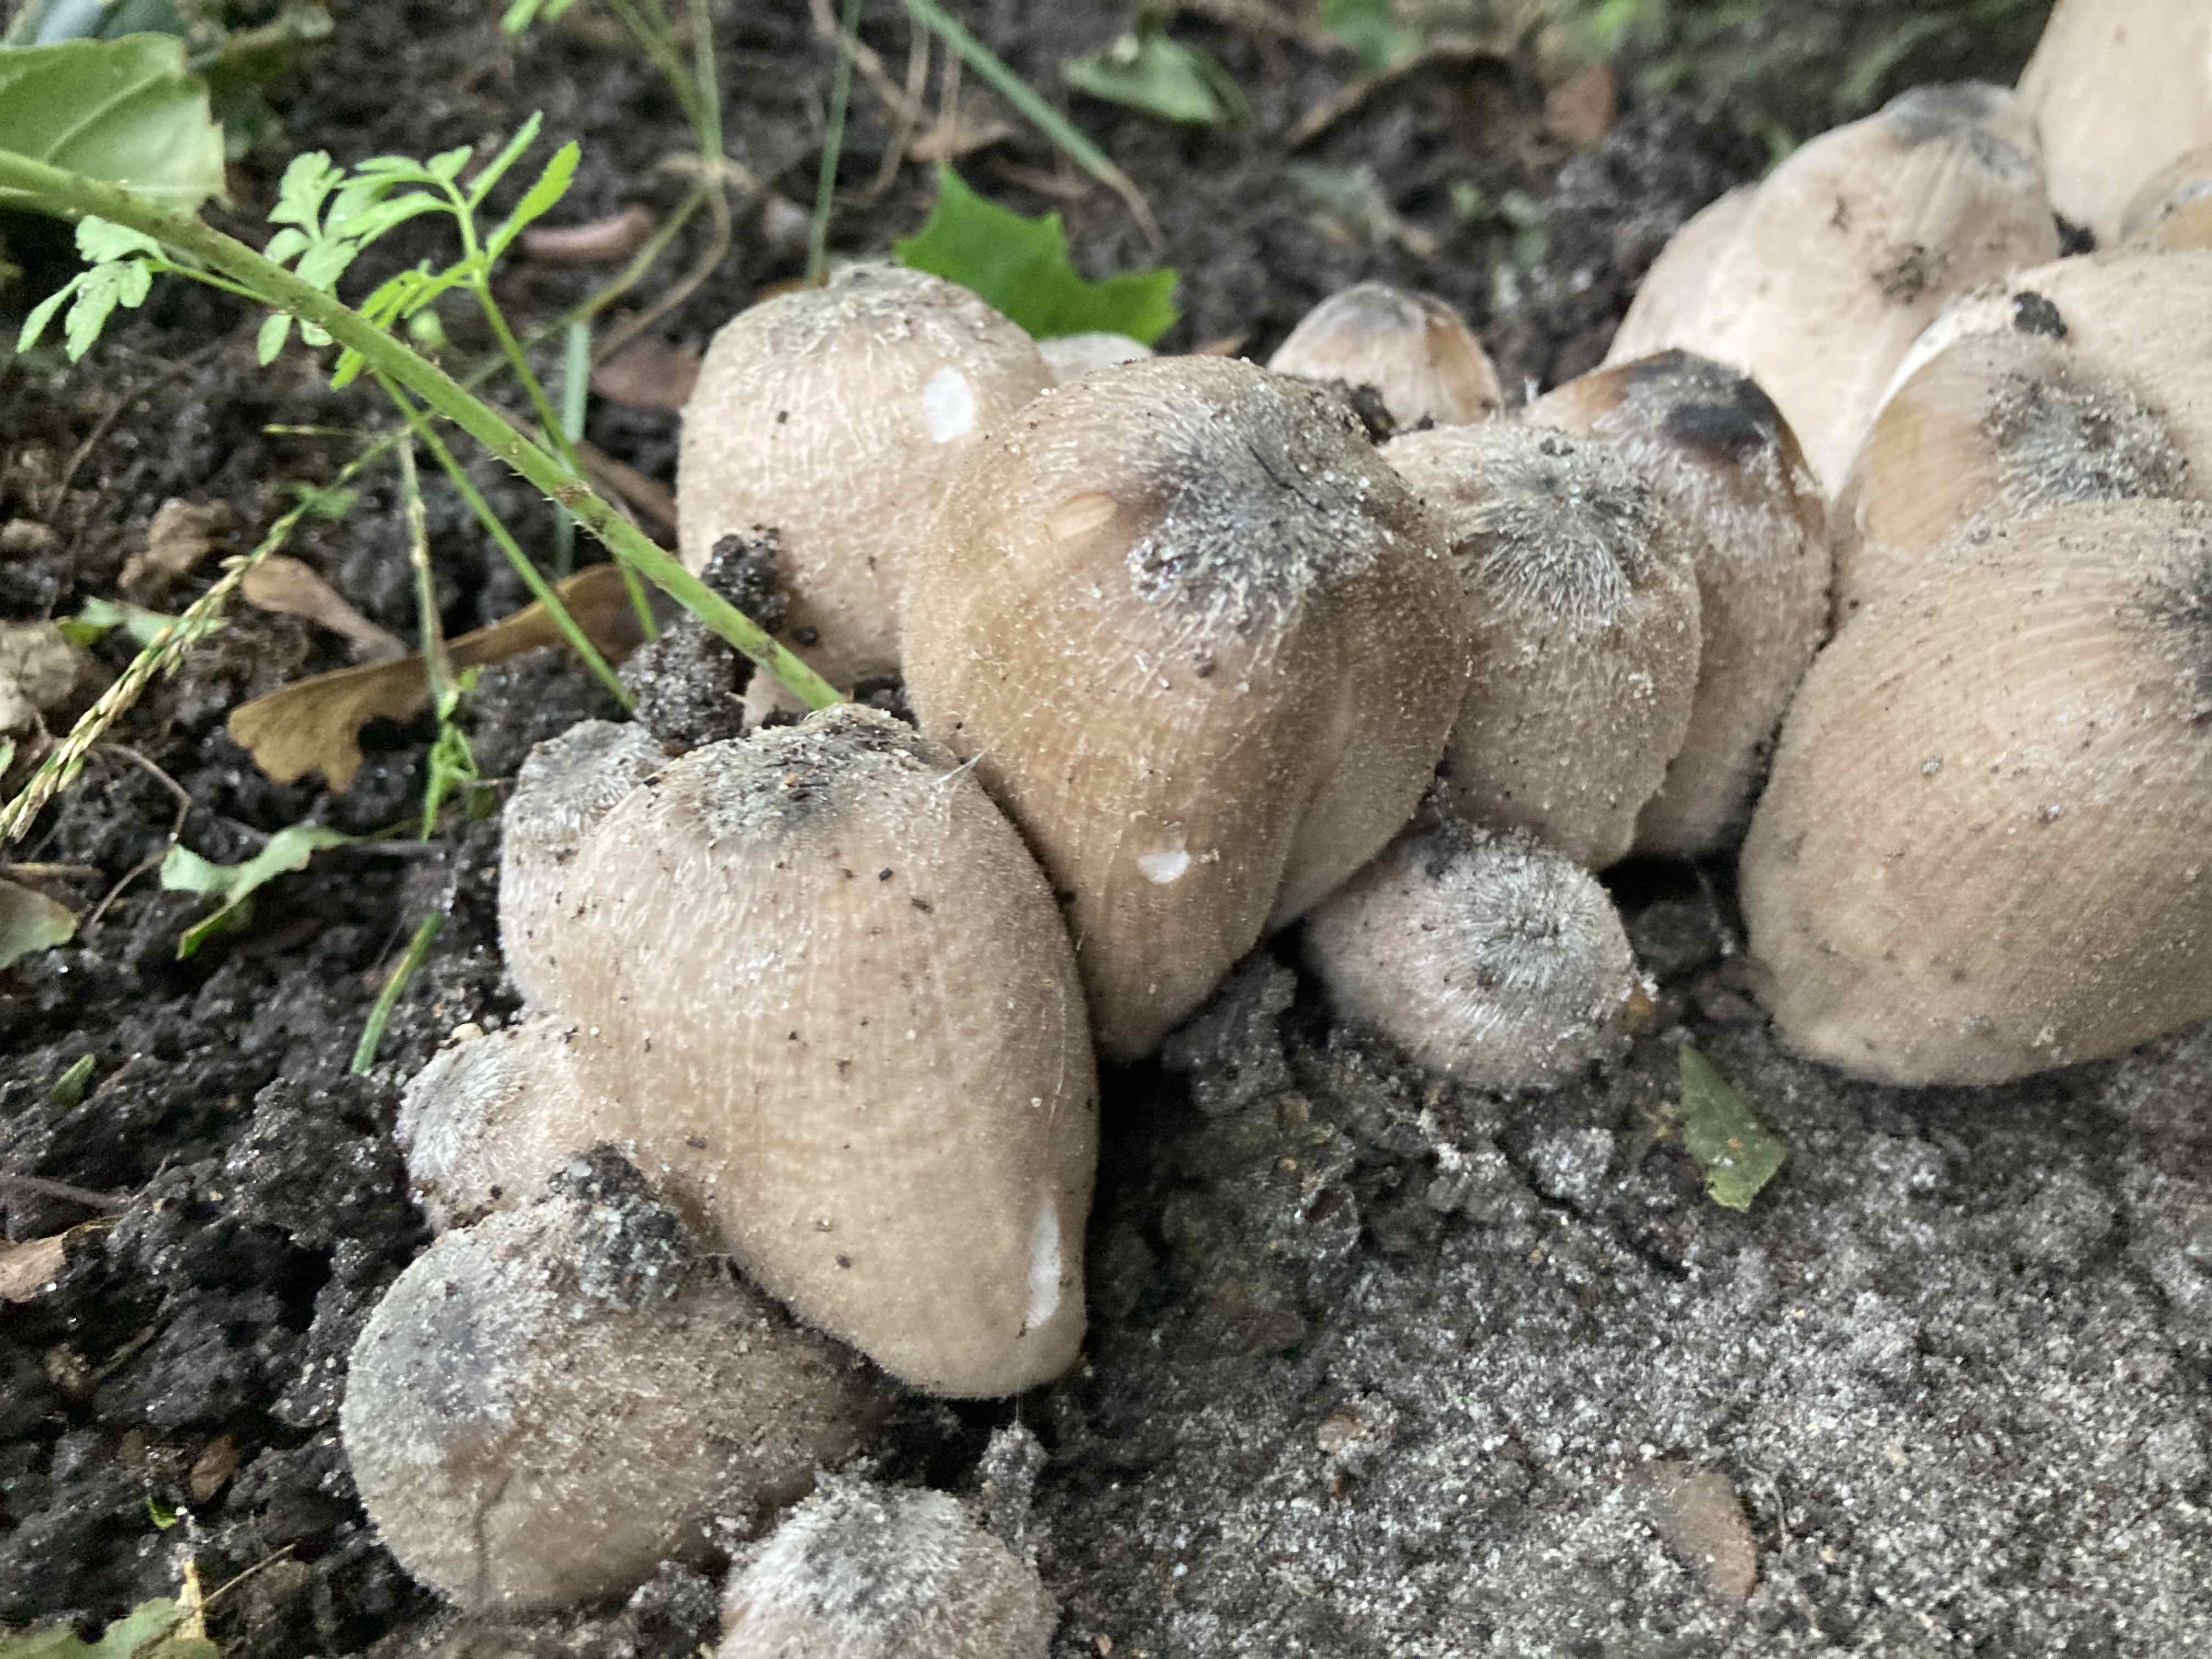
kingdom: Fungi
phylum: Basidiomycota
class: Agaricomycetes
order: Agaricales
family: Psathyrellaceae
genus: Coprinopsis
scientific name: Coprinopsis insignis
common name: stor blækhat
